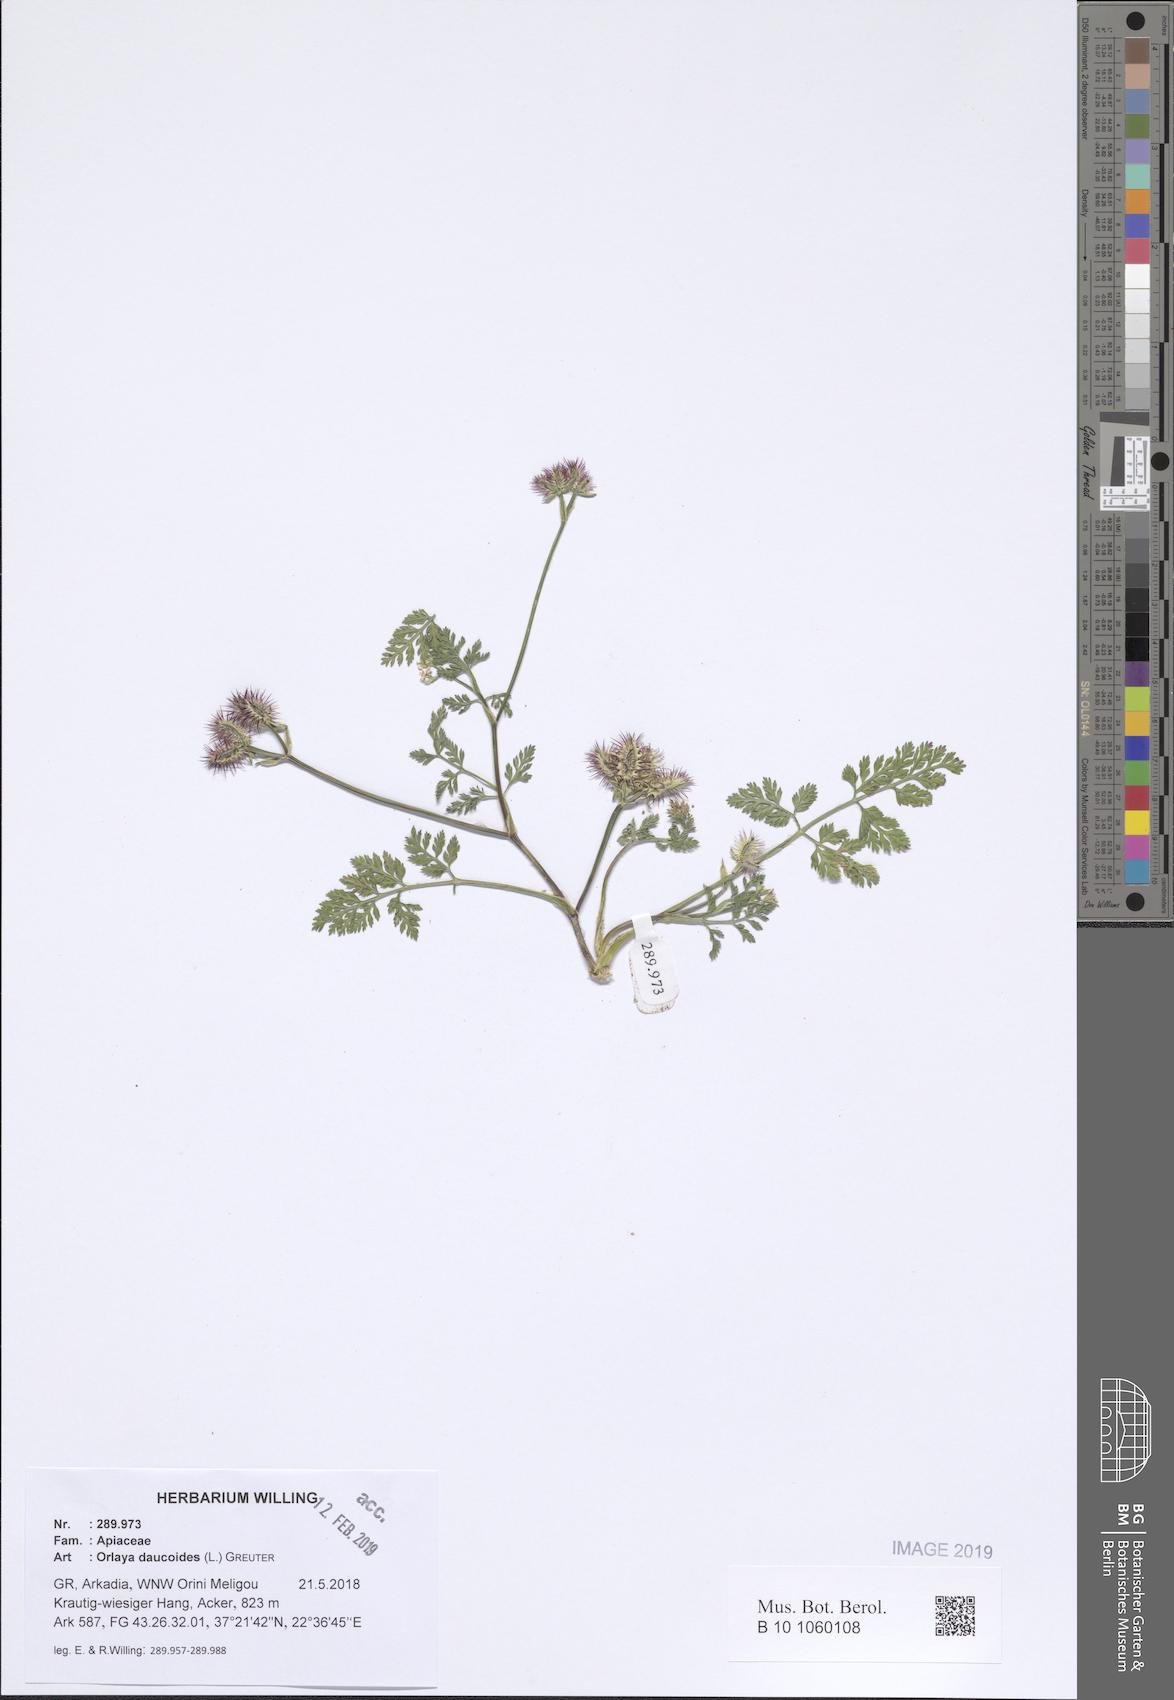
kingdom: Plantae
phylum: Tracheophyta
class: Magnoliopsida
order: Apiales
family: Apiaceae
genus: Orlaya
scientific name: Orlaya daucoides
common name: Flat-fruit orlaya
